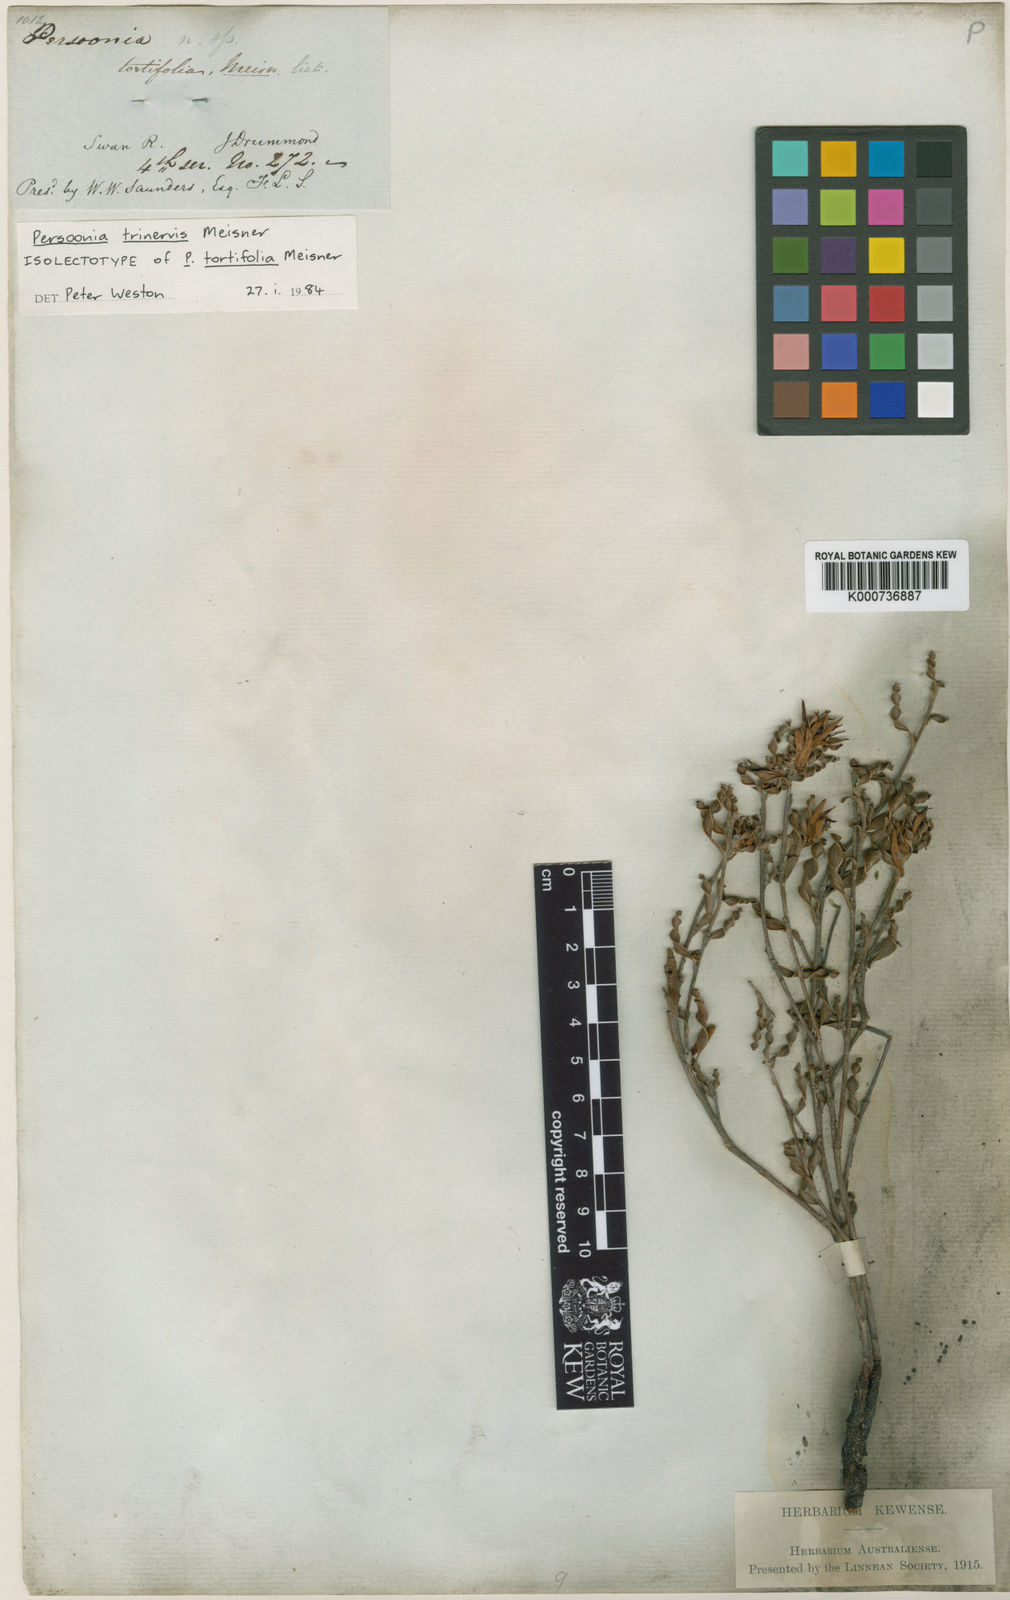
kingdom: Plantae
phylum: Tracheophyta
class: Magnoliopsida
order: Proteales
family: Proteaceae
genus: Persoonia
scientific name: Persoonia trinervis
